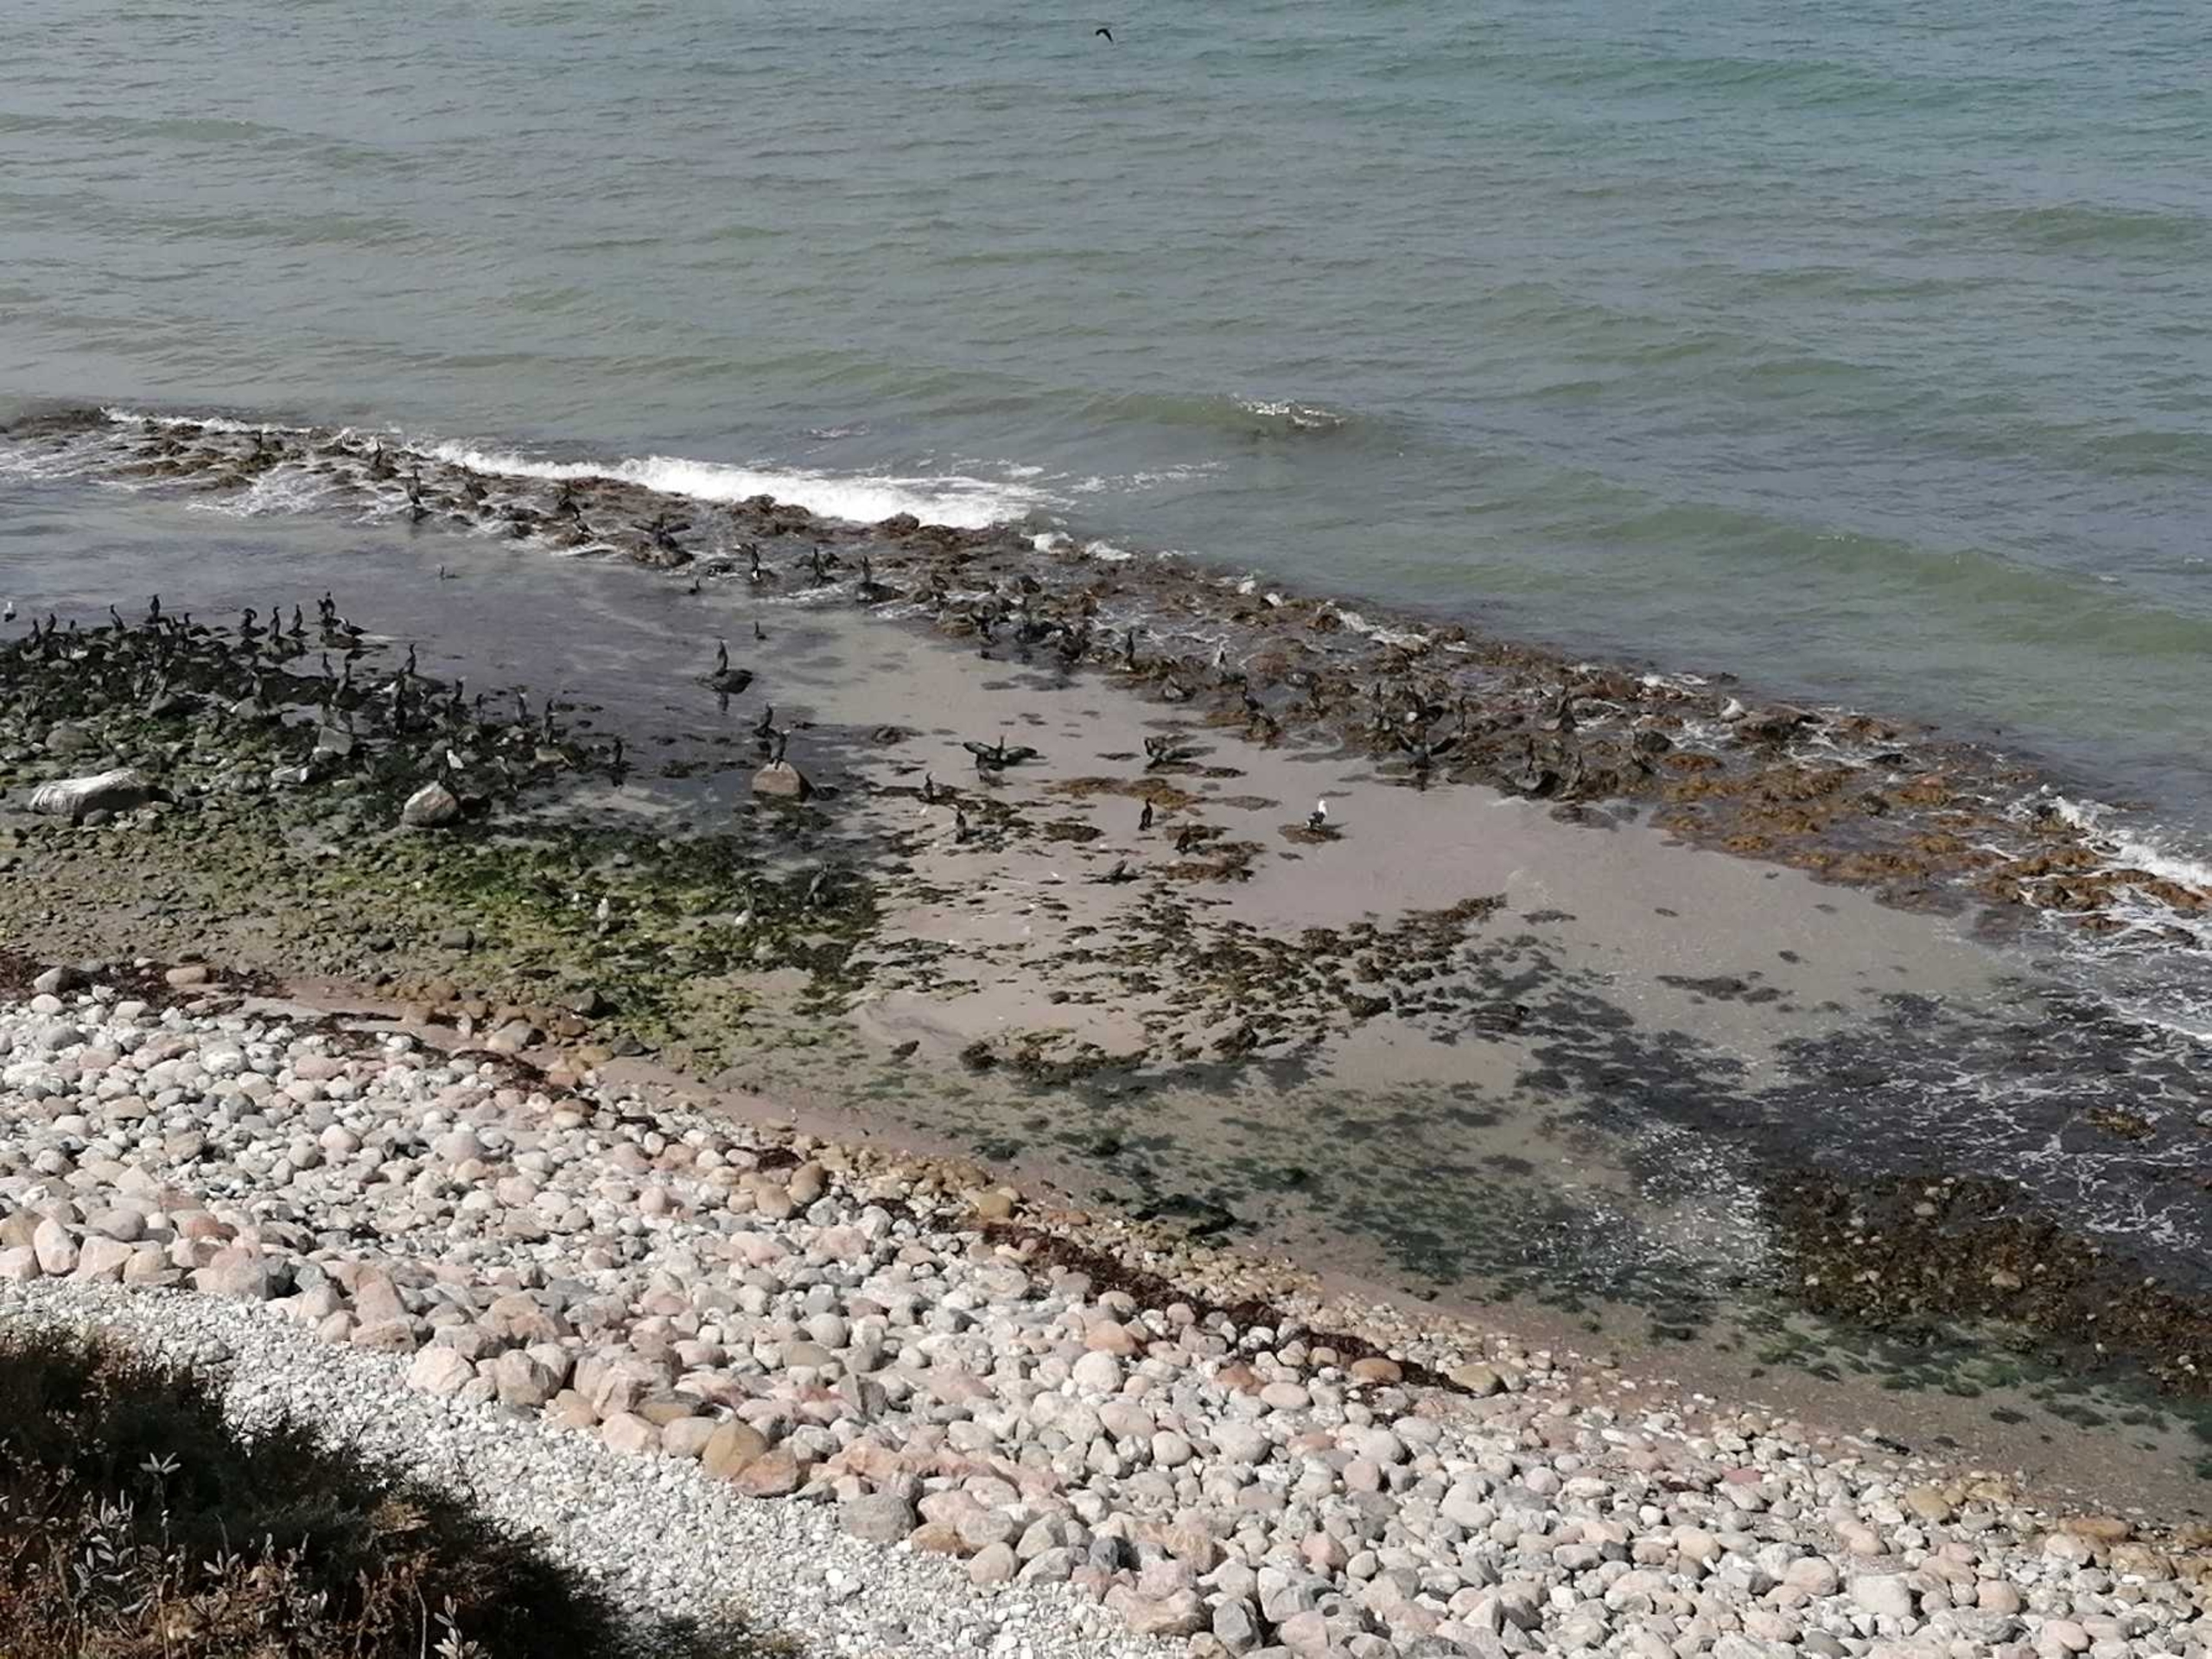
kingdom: Animalia
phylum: Chordata
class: Aves
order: Suliformes
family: Phalacrocoracidae
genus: Phalacrocorax
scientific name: Phalacrocorax carbo
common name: Skarv
